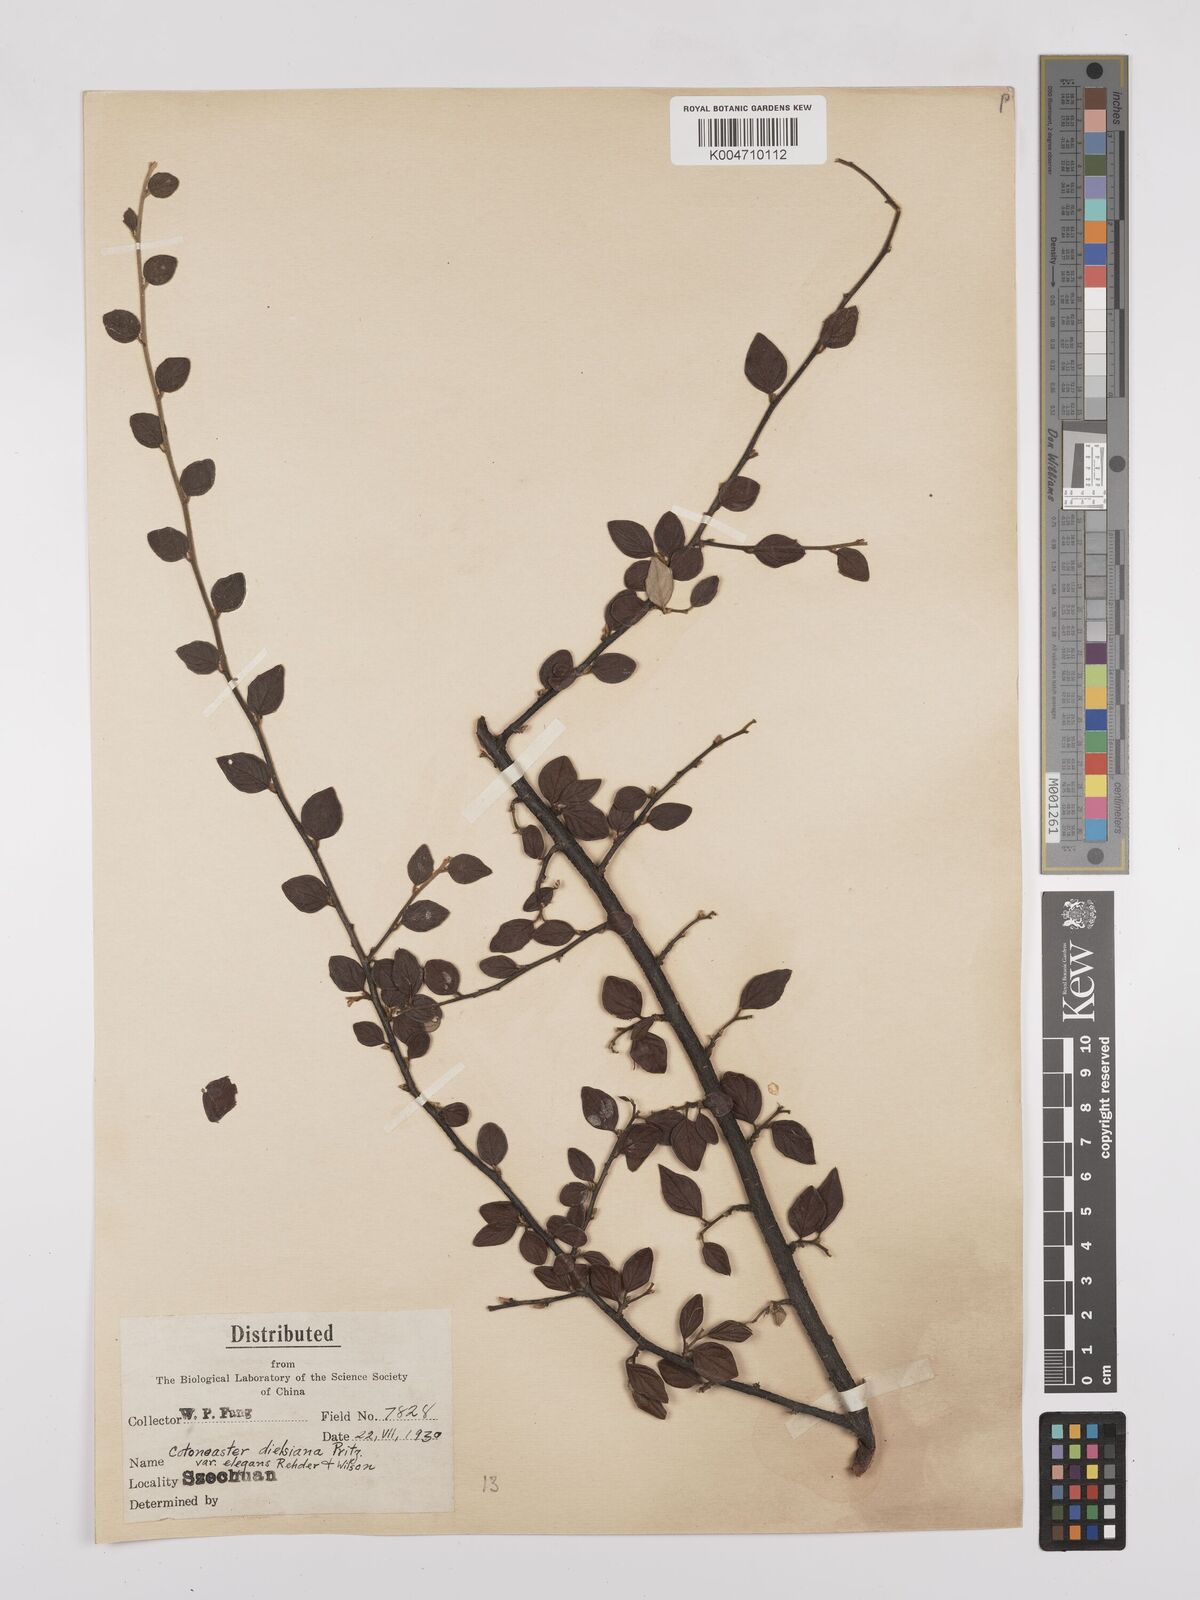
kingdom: Plantae
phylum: Tracheophyta
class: Magnoliopsida
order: Rosales
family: Rosaceae
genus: Cotoneaster
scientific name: Cotoneaster dielsianus
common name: Diels's cotoneaster
